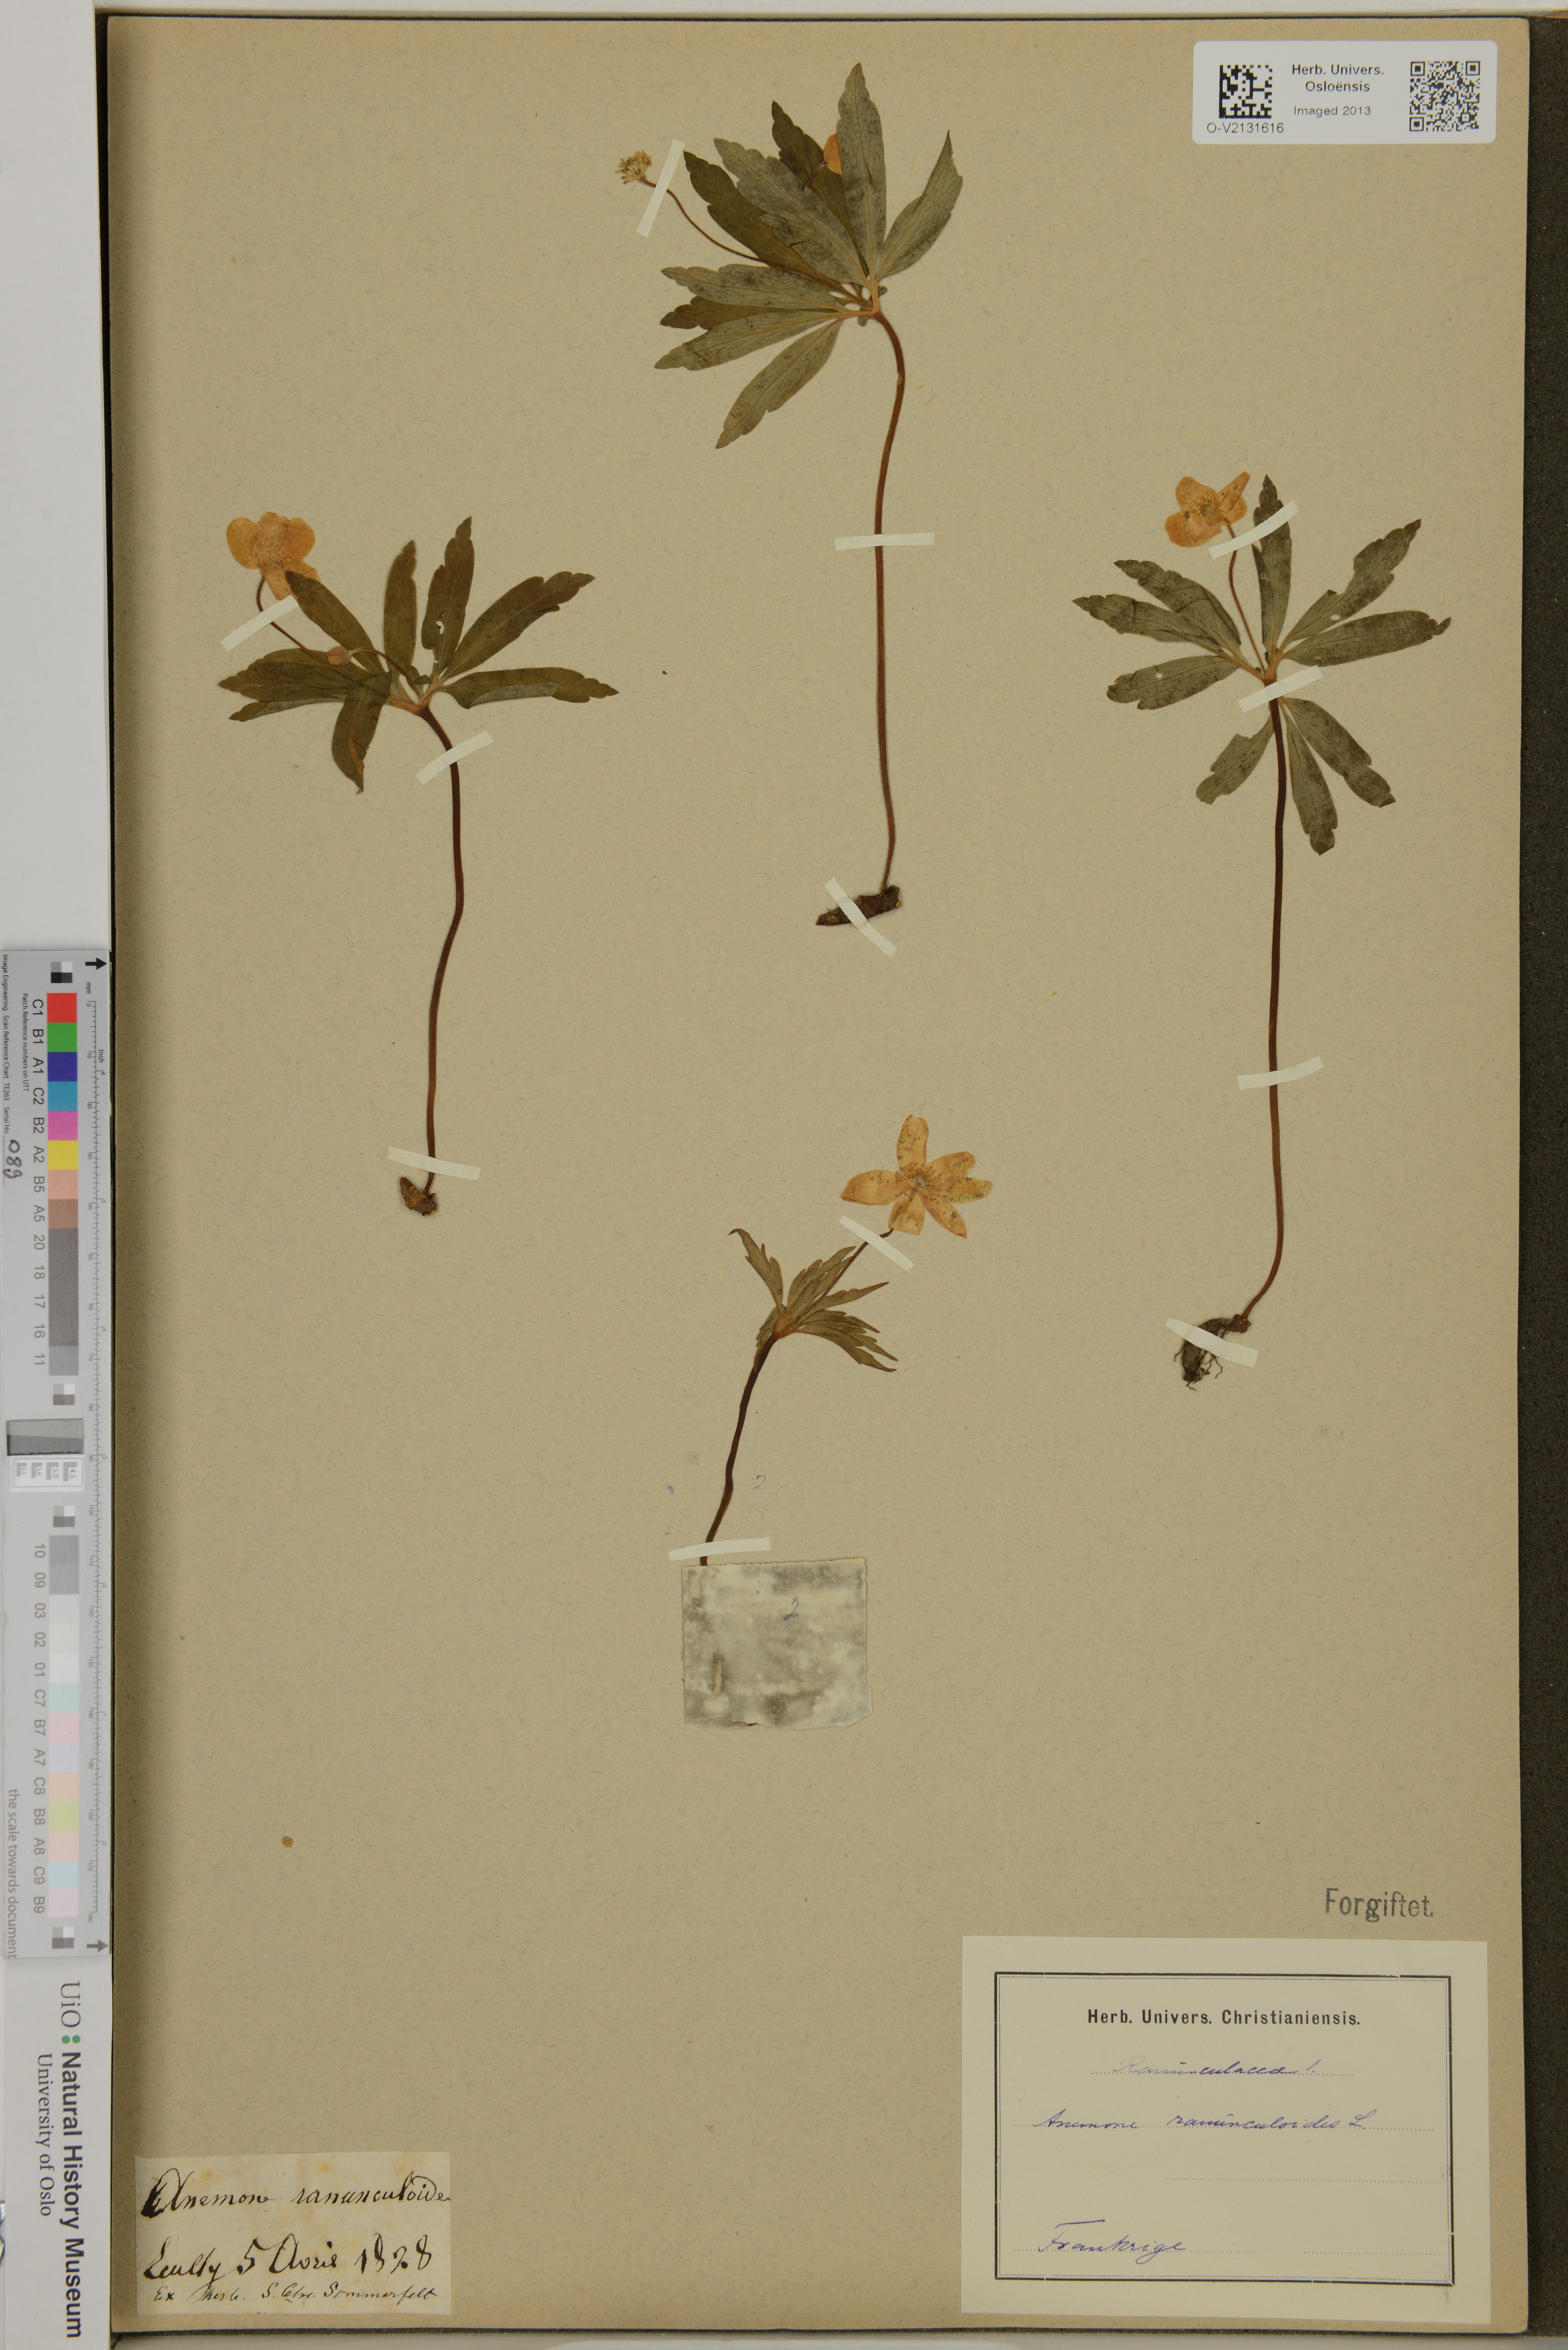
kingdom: Plantae
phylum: Tracheophyta
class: Magnoliopsida
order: Ranunculales
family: Ranunculaceae
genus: Anemone
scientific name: Anemone ranunculoides
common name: Yellow anemone
